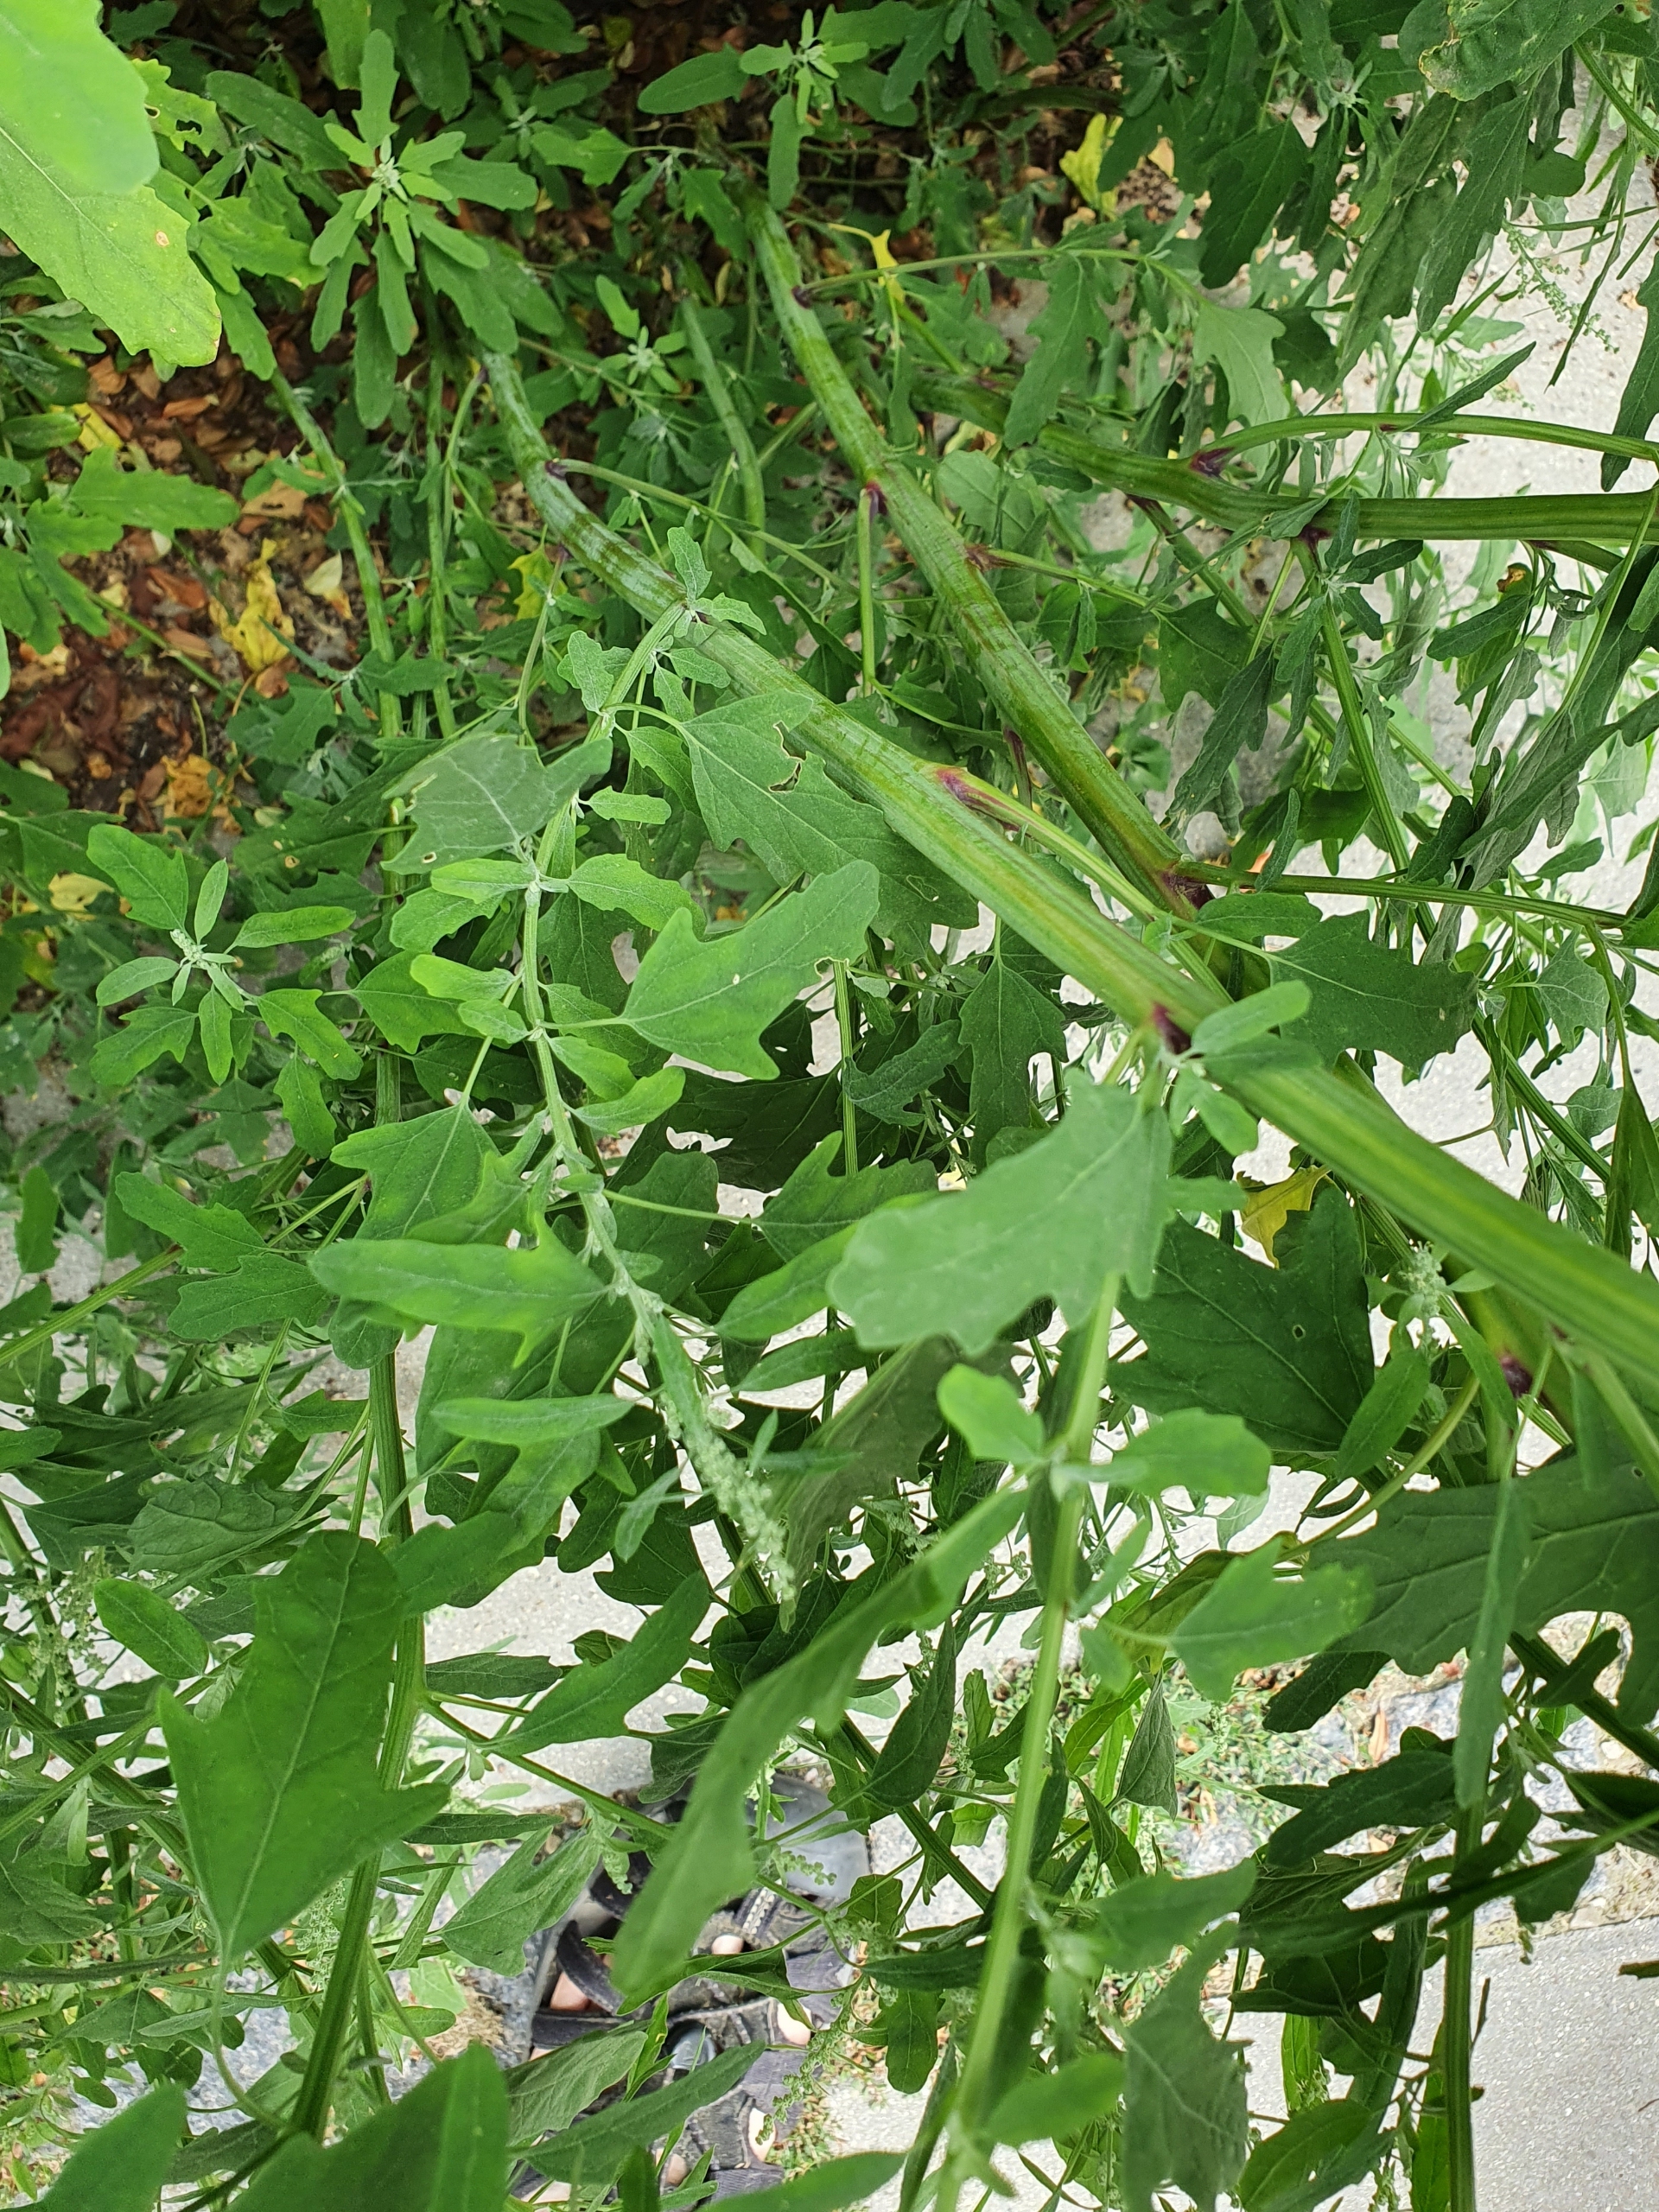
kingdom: Plantae
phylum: Tracheophyta
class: Magnoliopsida
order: Caryophyllales
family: Amaranthaceae
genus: Chenopodium
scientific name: Chenopodium ficifolium
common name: Figenbladet gåsefod
